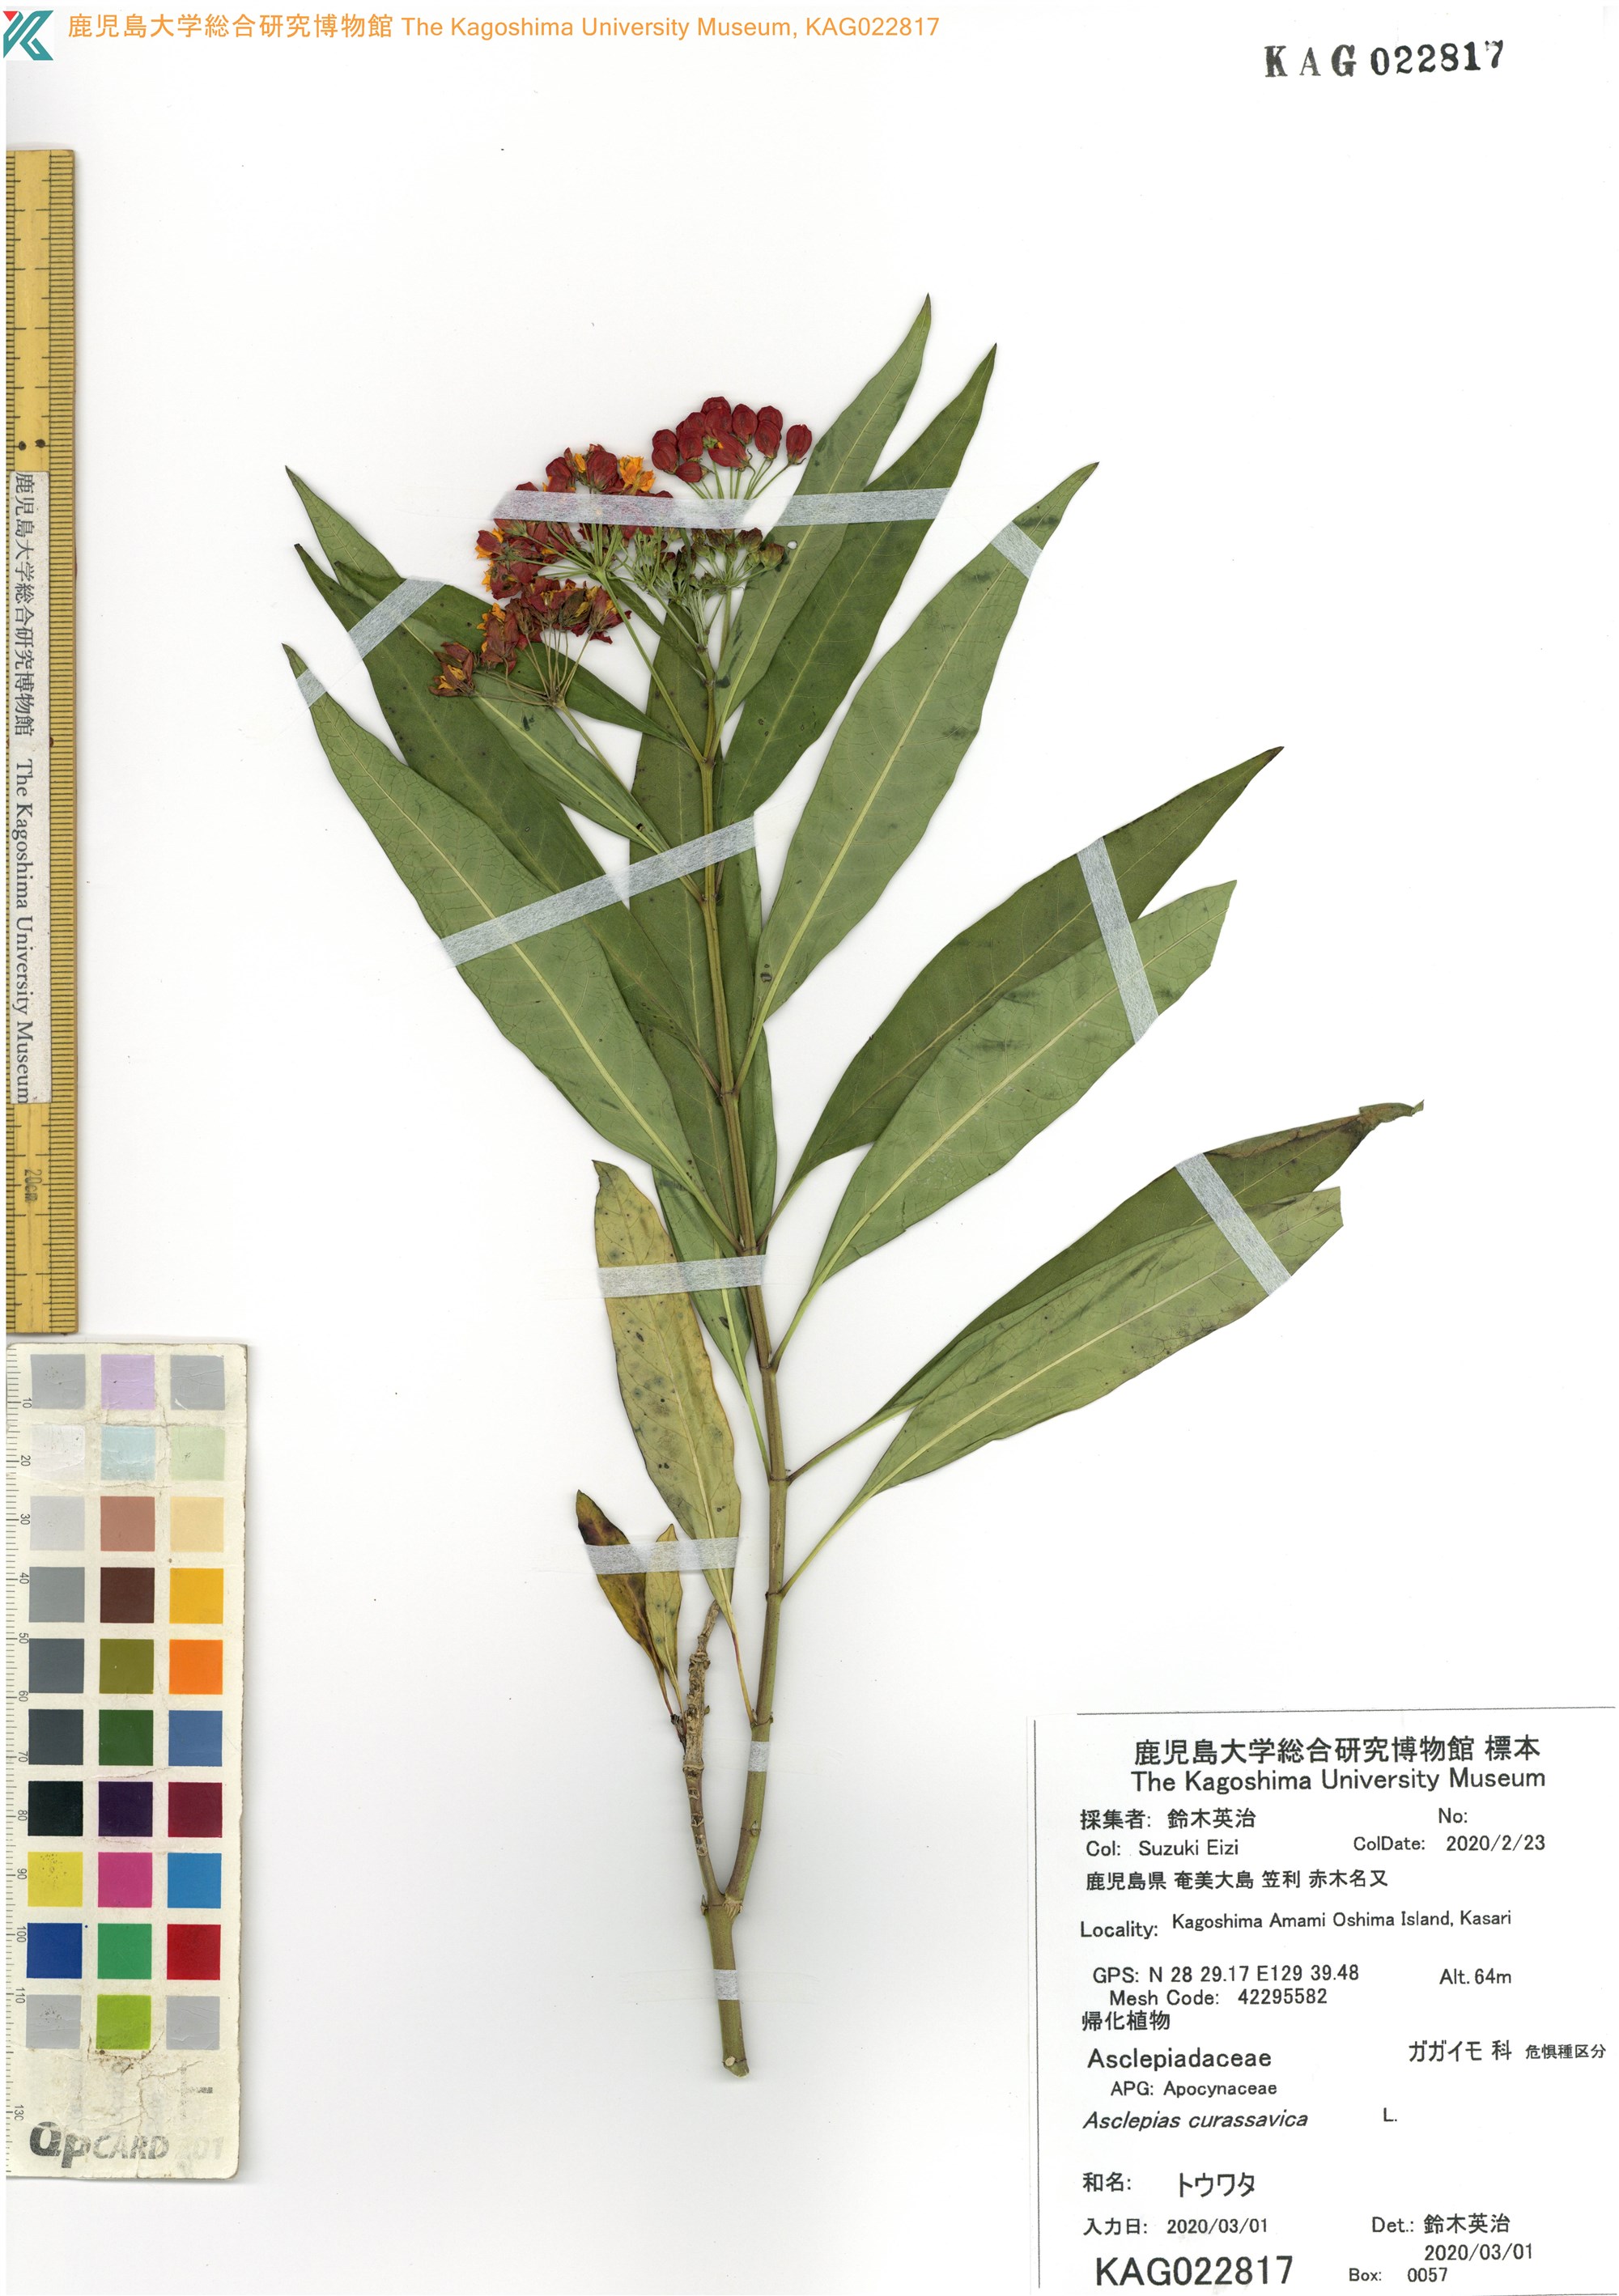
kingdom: Plantae
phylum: Tracheophyta
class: Magnoliopsida
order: Gentianales
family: Apocynaceae
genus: Asclepias
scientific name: Asclepias curassavica
